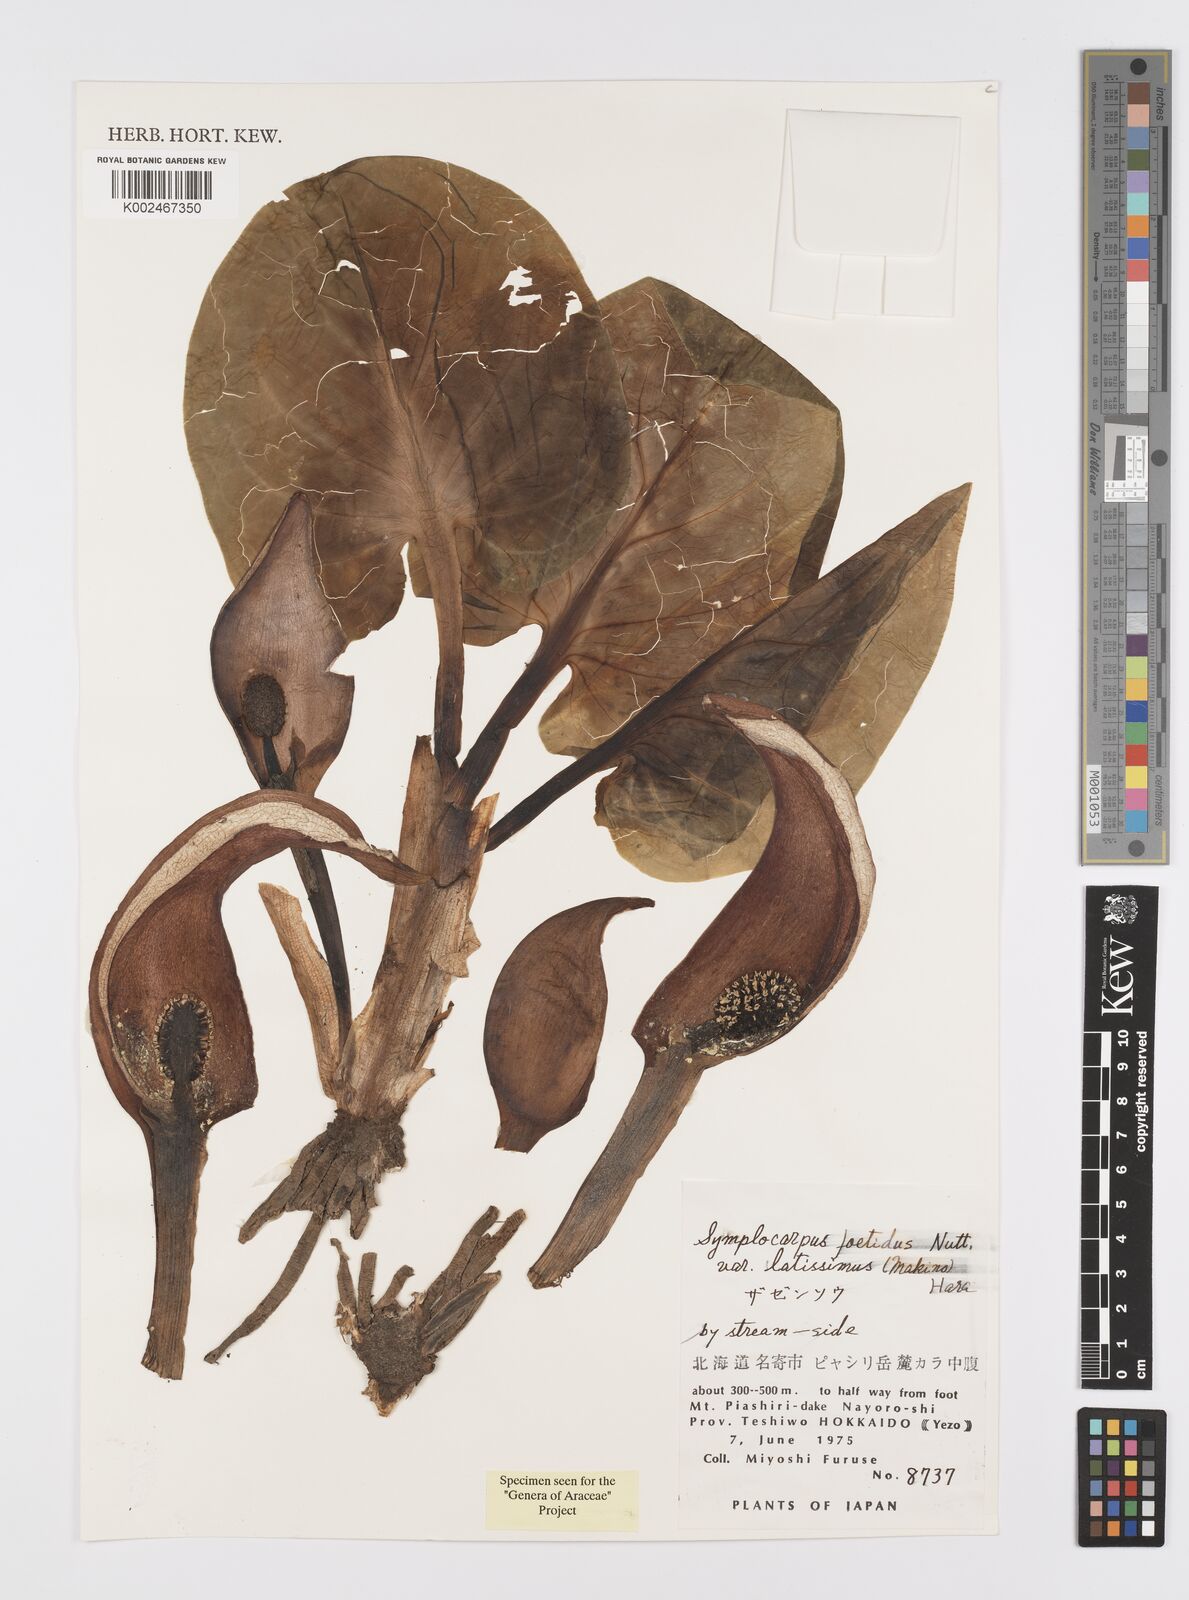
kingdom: Plantae
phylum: Tracheophyta
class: Liliopsida
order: Alismatales
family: Araceae
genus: Symplocarpus
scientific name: Symplocarpus nipponicus
